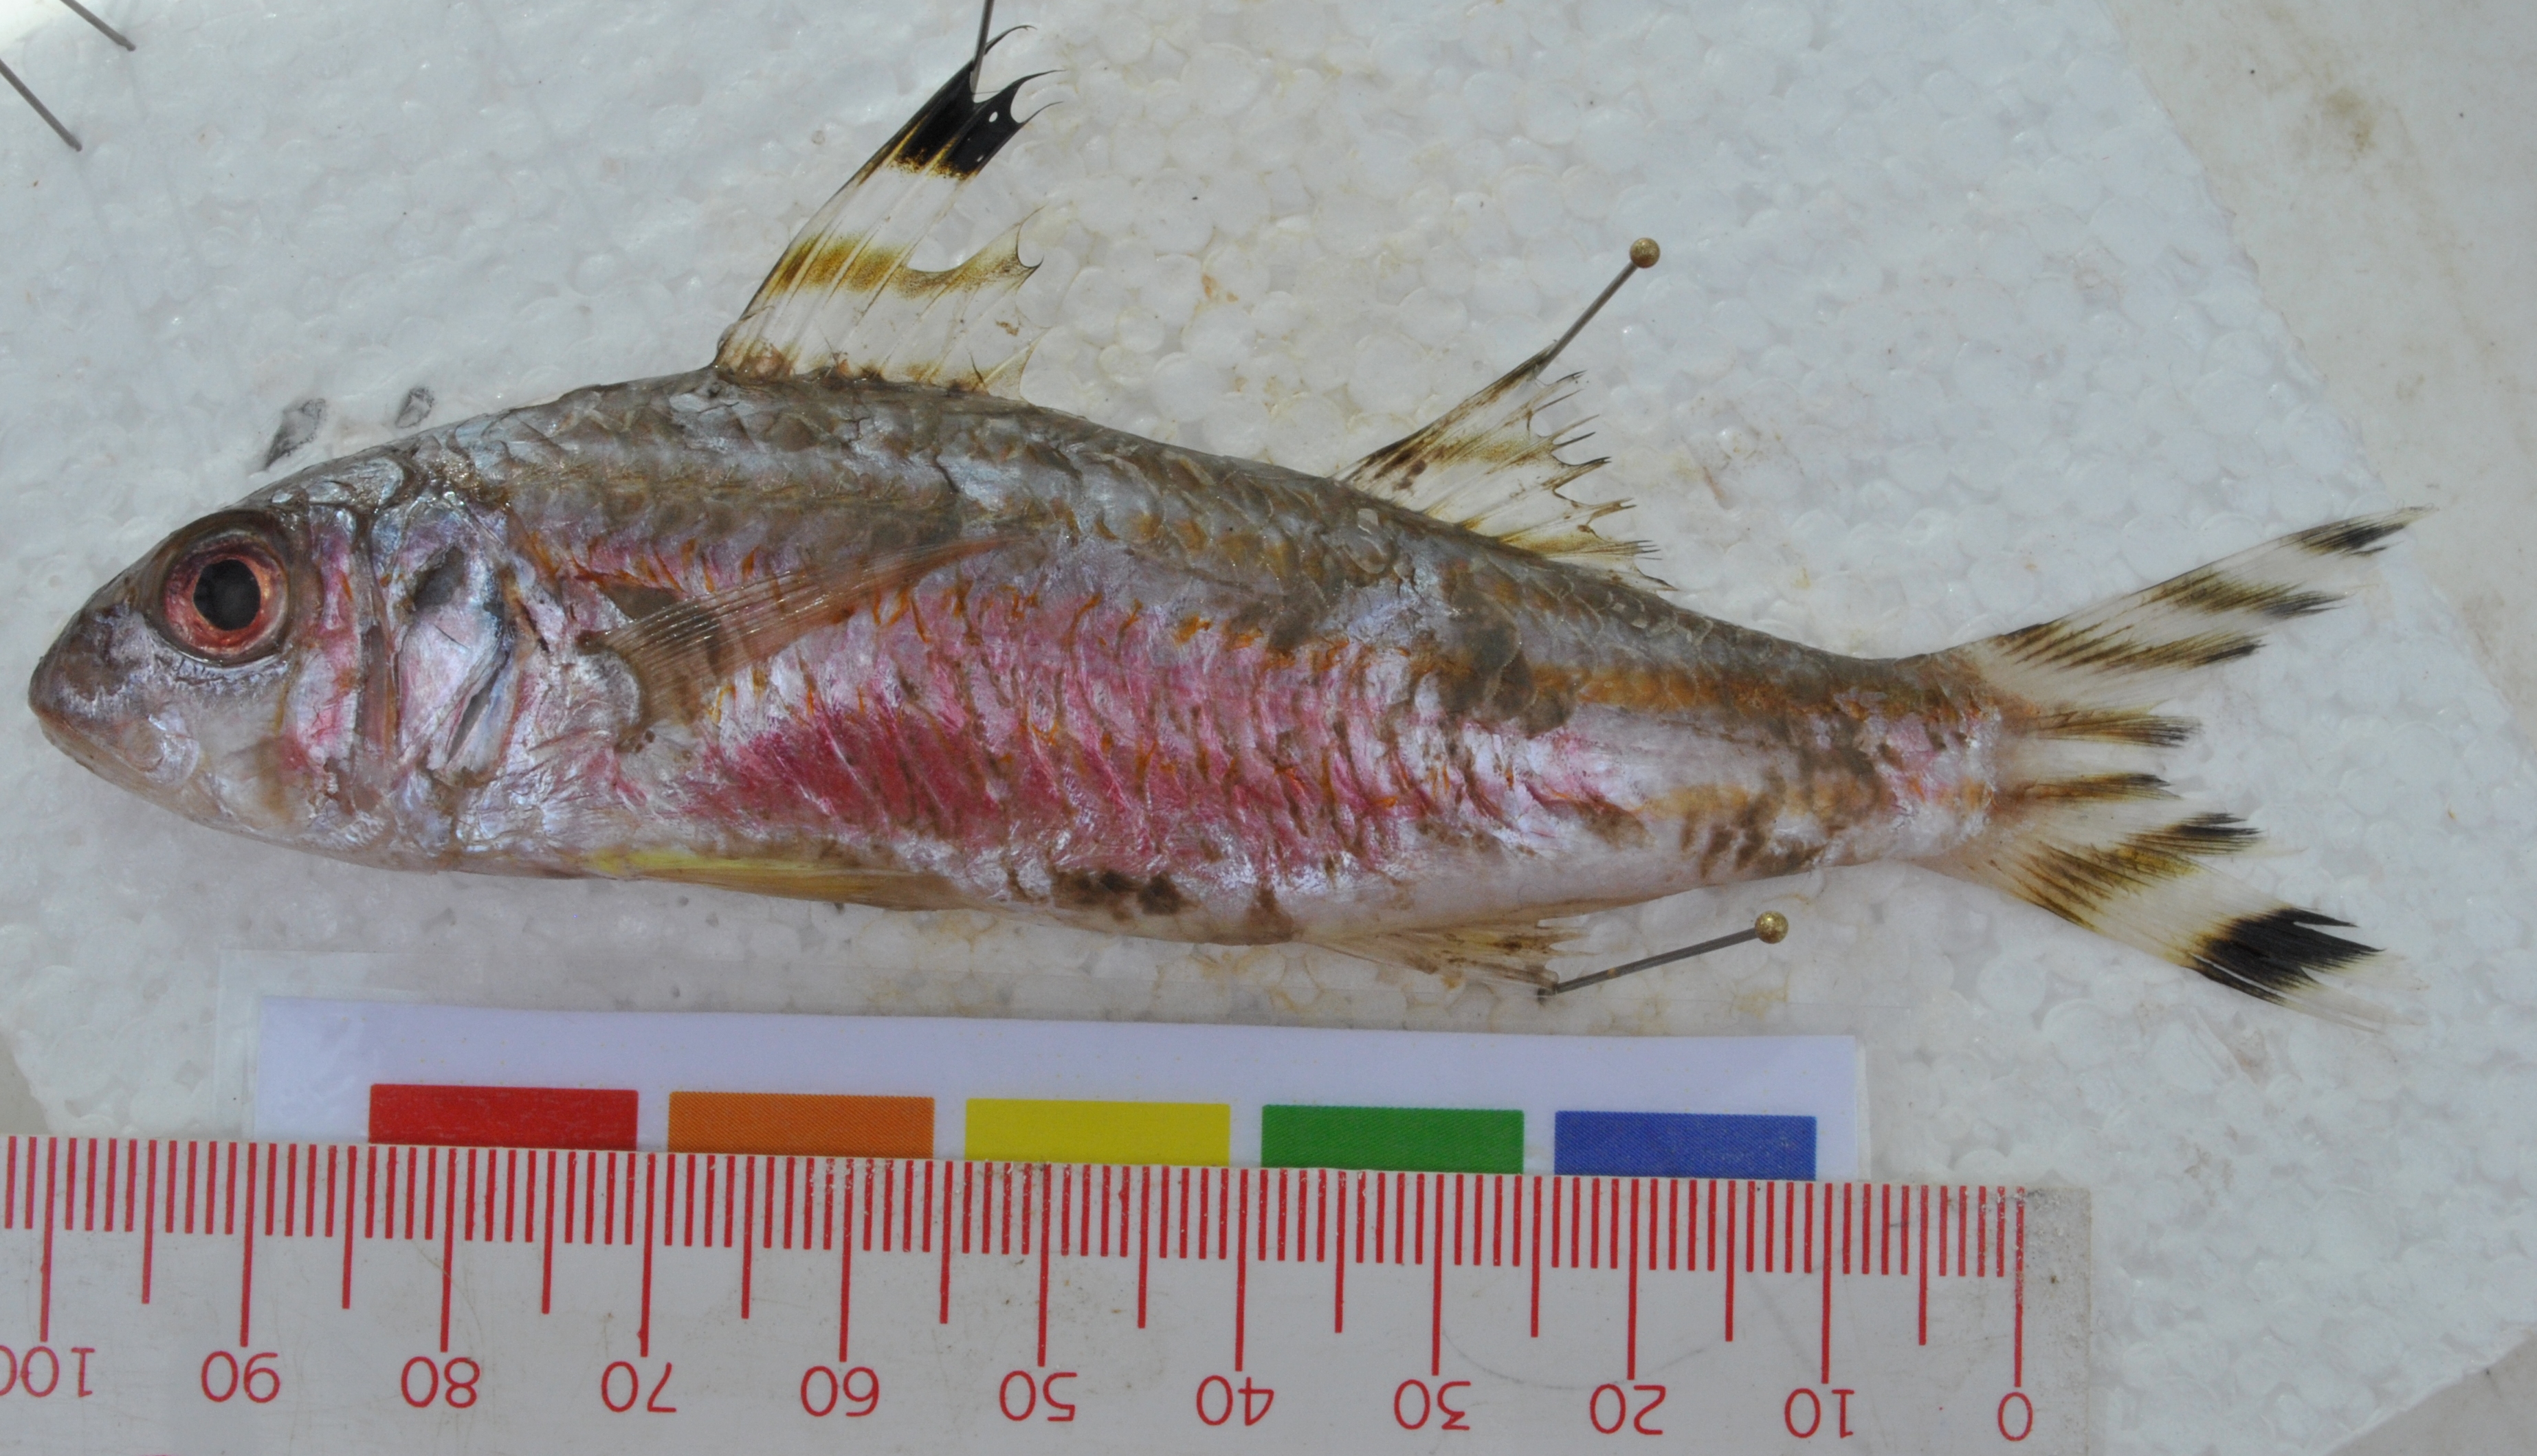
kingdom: Animalia
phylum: Chordata
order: Perciformes
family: Mullidae
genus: Upeneus
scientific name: Upeneus vittatus
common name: Striped goatfish
